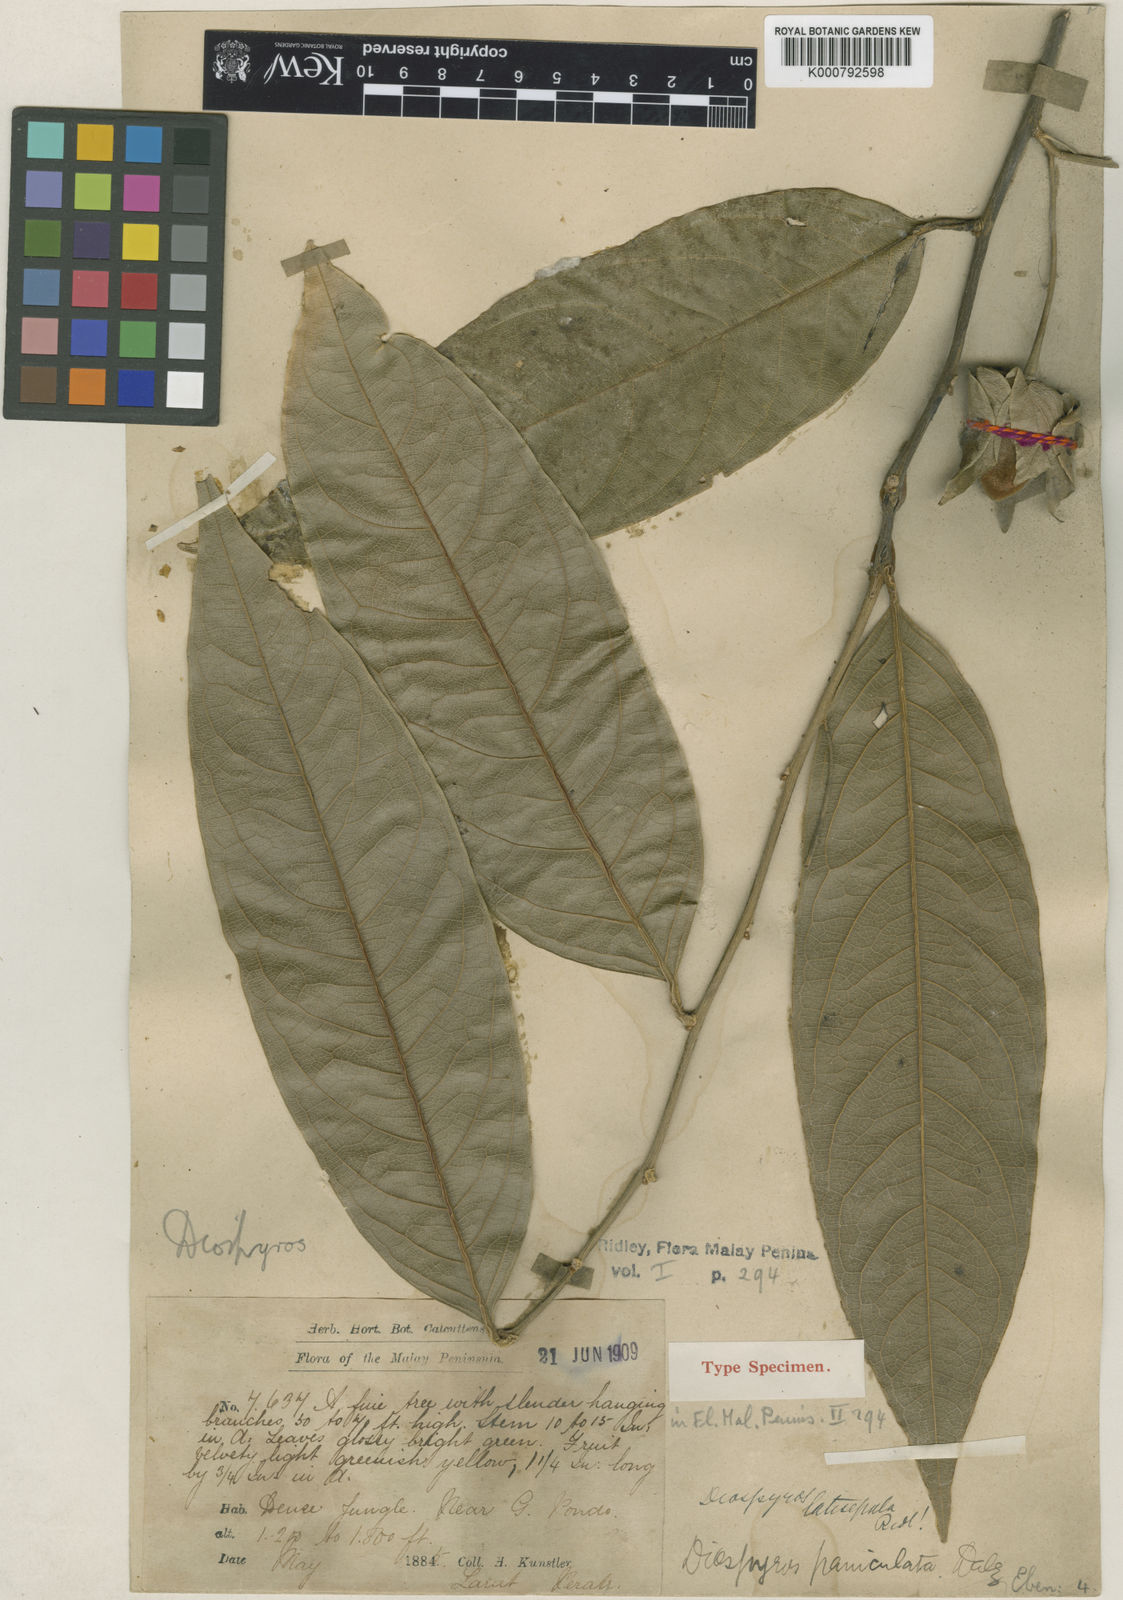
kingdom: Plantae
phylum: Tracheophyta
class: Magnoliopsida
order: Ericales
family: Ebenaceae
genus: Diospyros
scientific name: Diospyros latisepala
